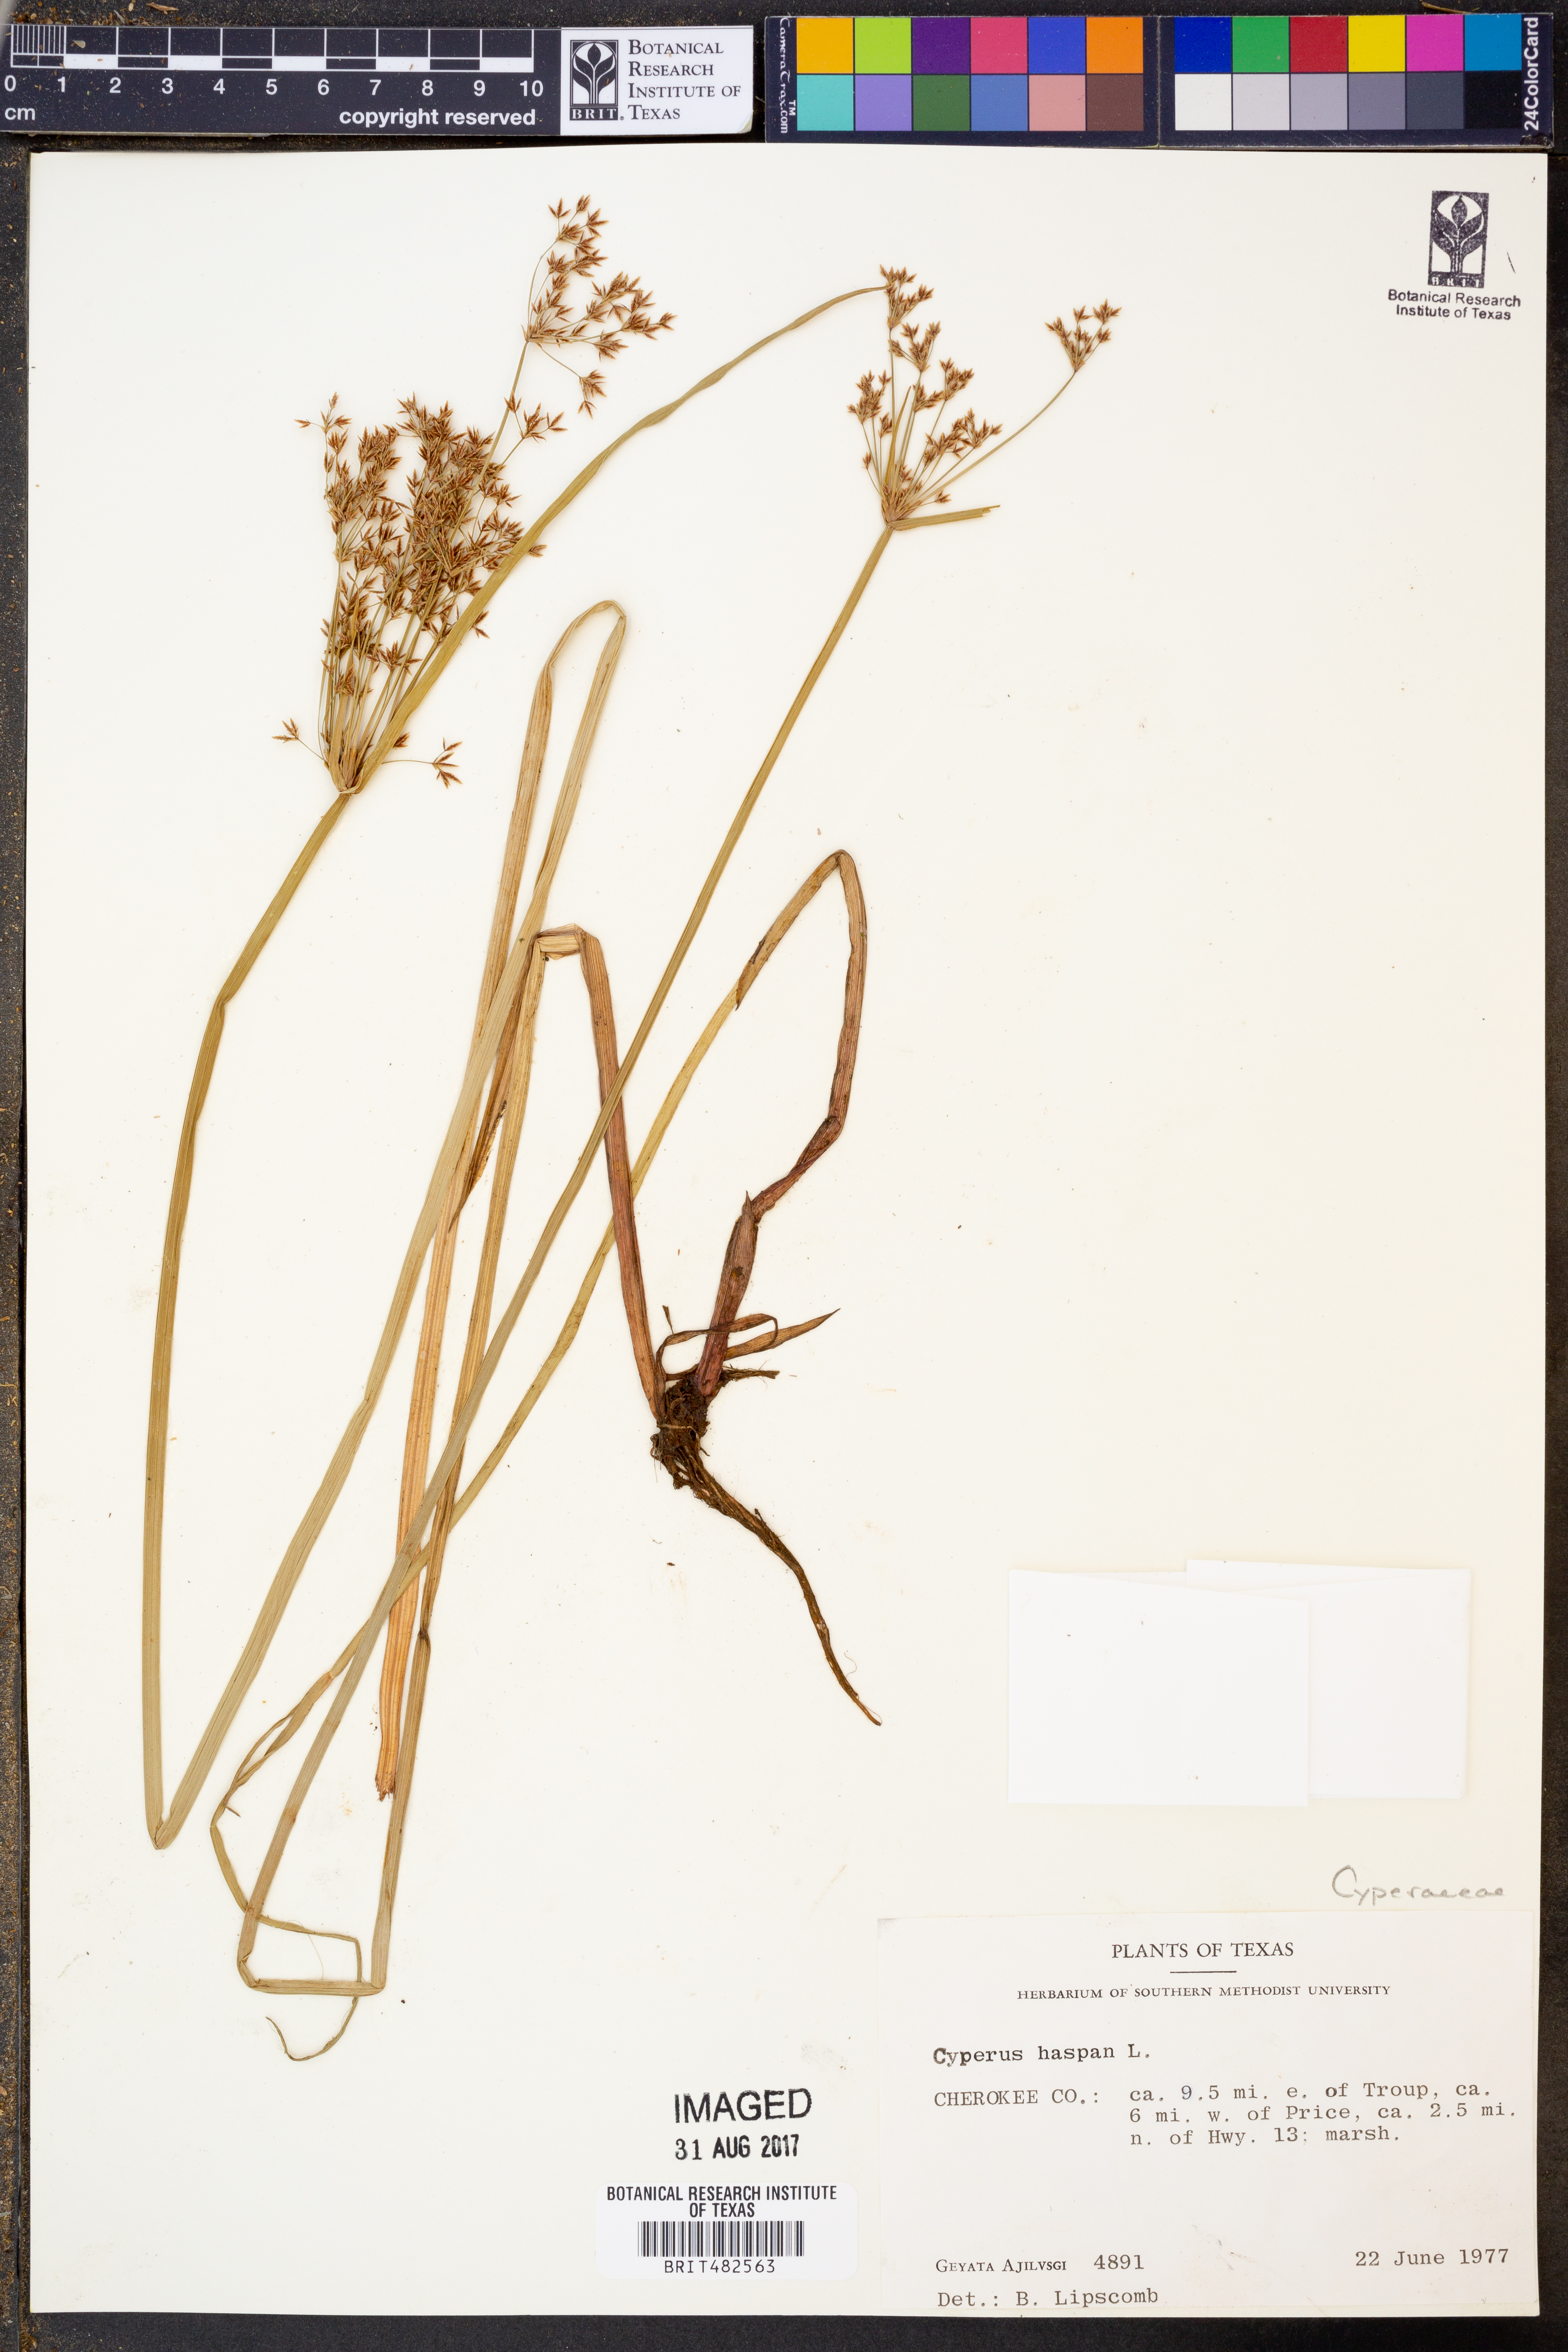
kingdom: Plantae
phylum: Tracheophyta
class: Liliopsida
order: Poales
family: Cyperaceae
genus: Cyperus
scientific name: Cyperus haspan
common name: Haspan flatsedge
